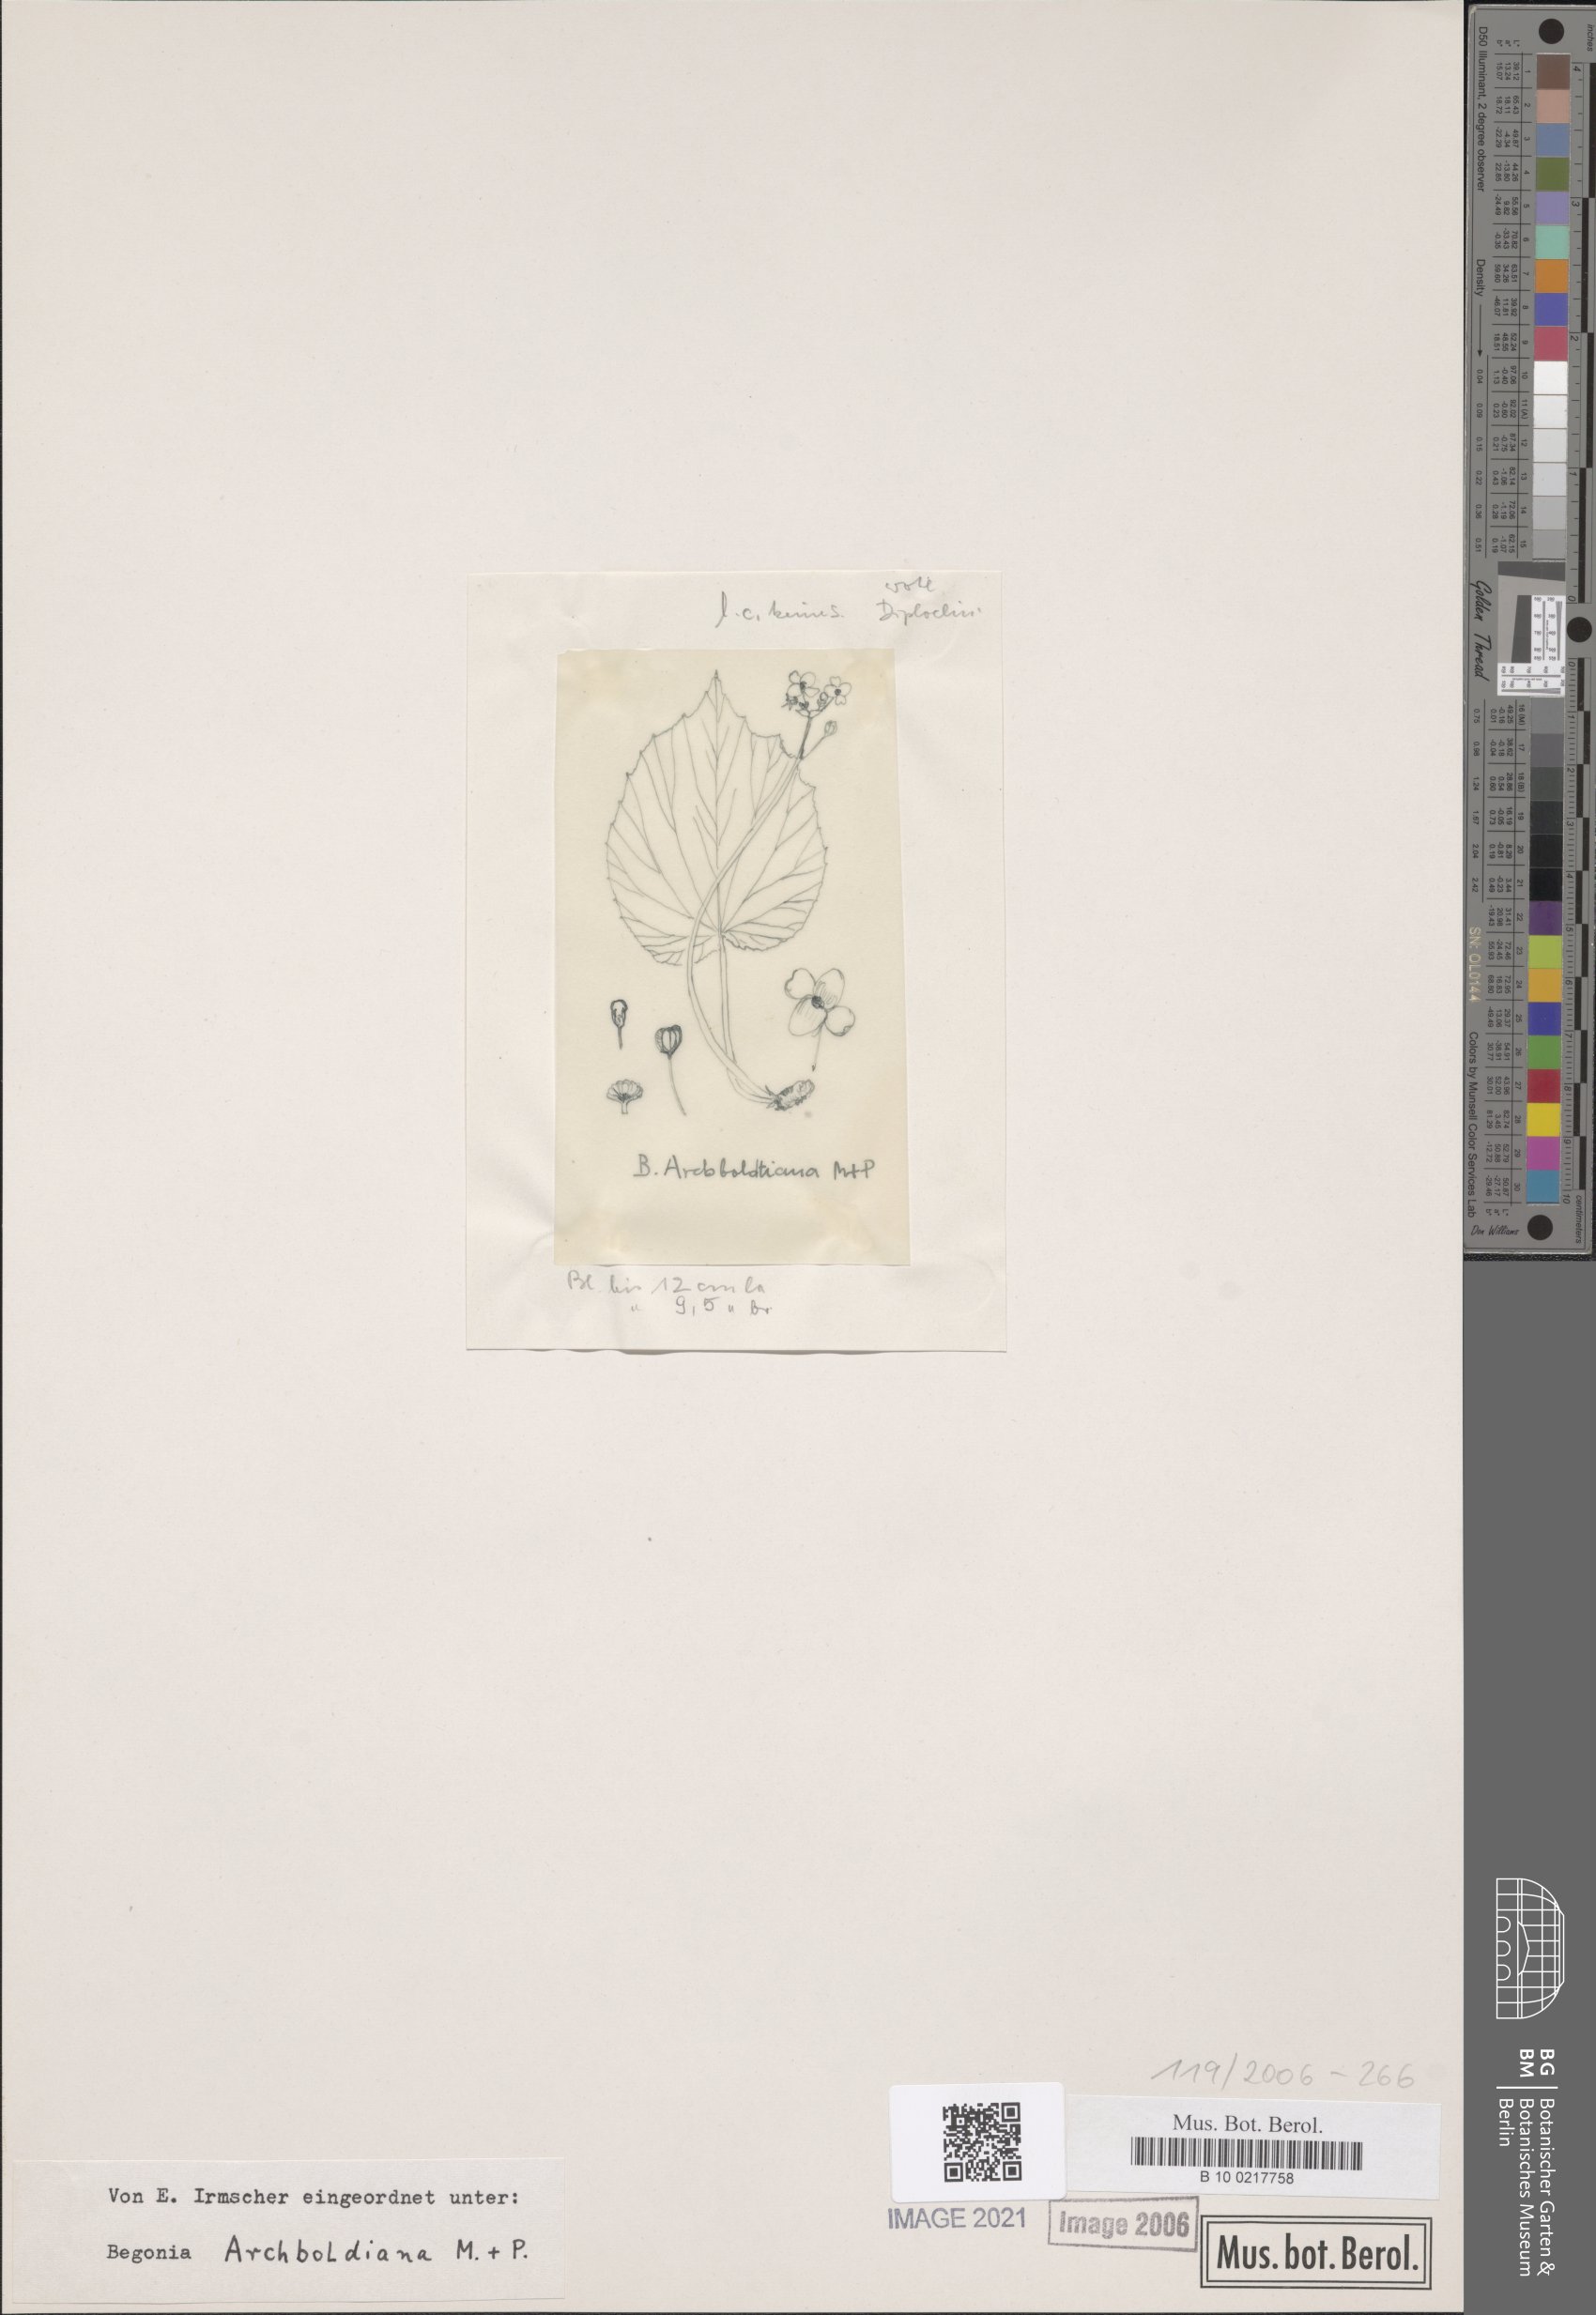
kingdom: Plantae
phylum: Tracheophyta
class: Magnoliopsida
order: Cucurbitales
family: Begoniaceae
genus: Begonia
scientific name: Begonia archboldiana
